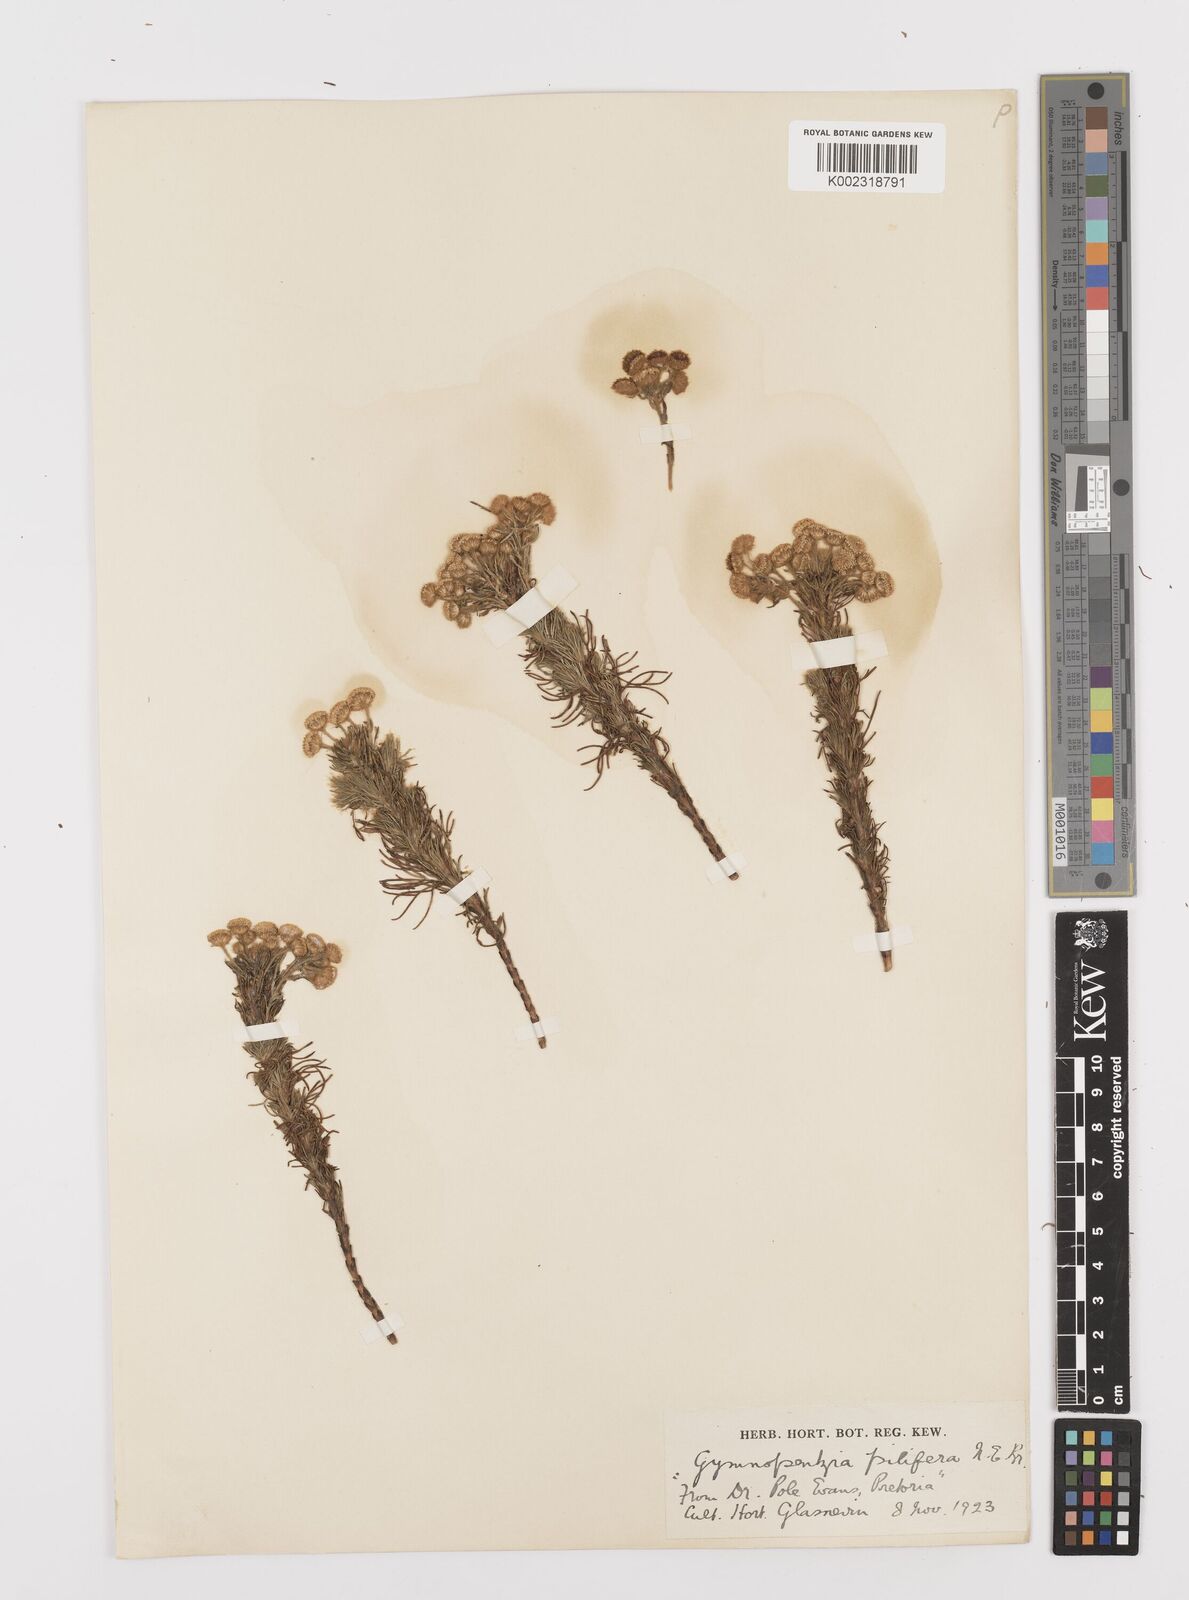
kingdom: Plantae
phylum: Tracheophyta
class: Magnoliopsida
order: Asterales
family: Asteraceae
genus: Gymnopentzia
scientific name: Gymnopentzia bifurcata
